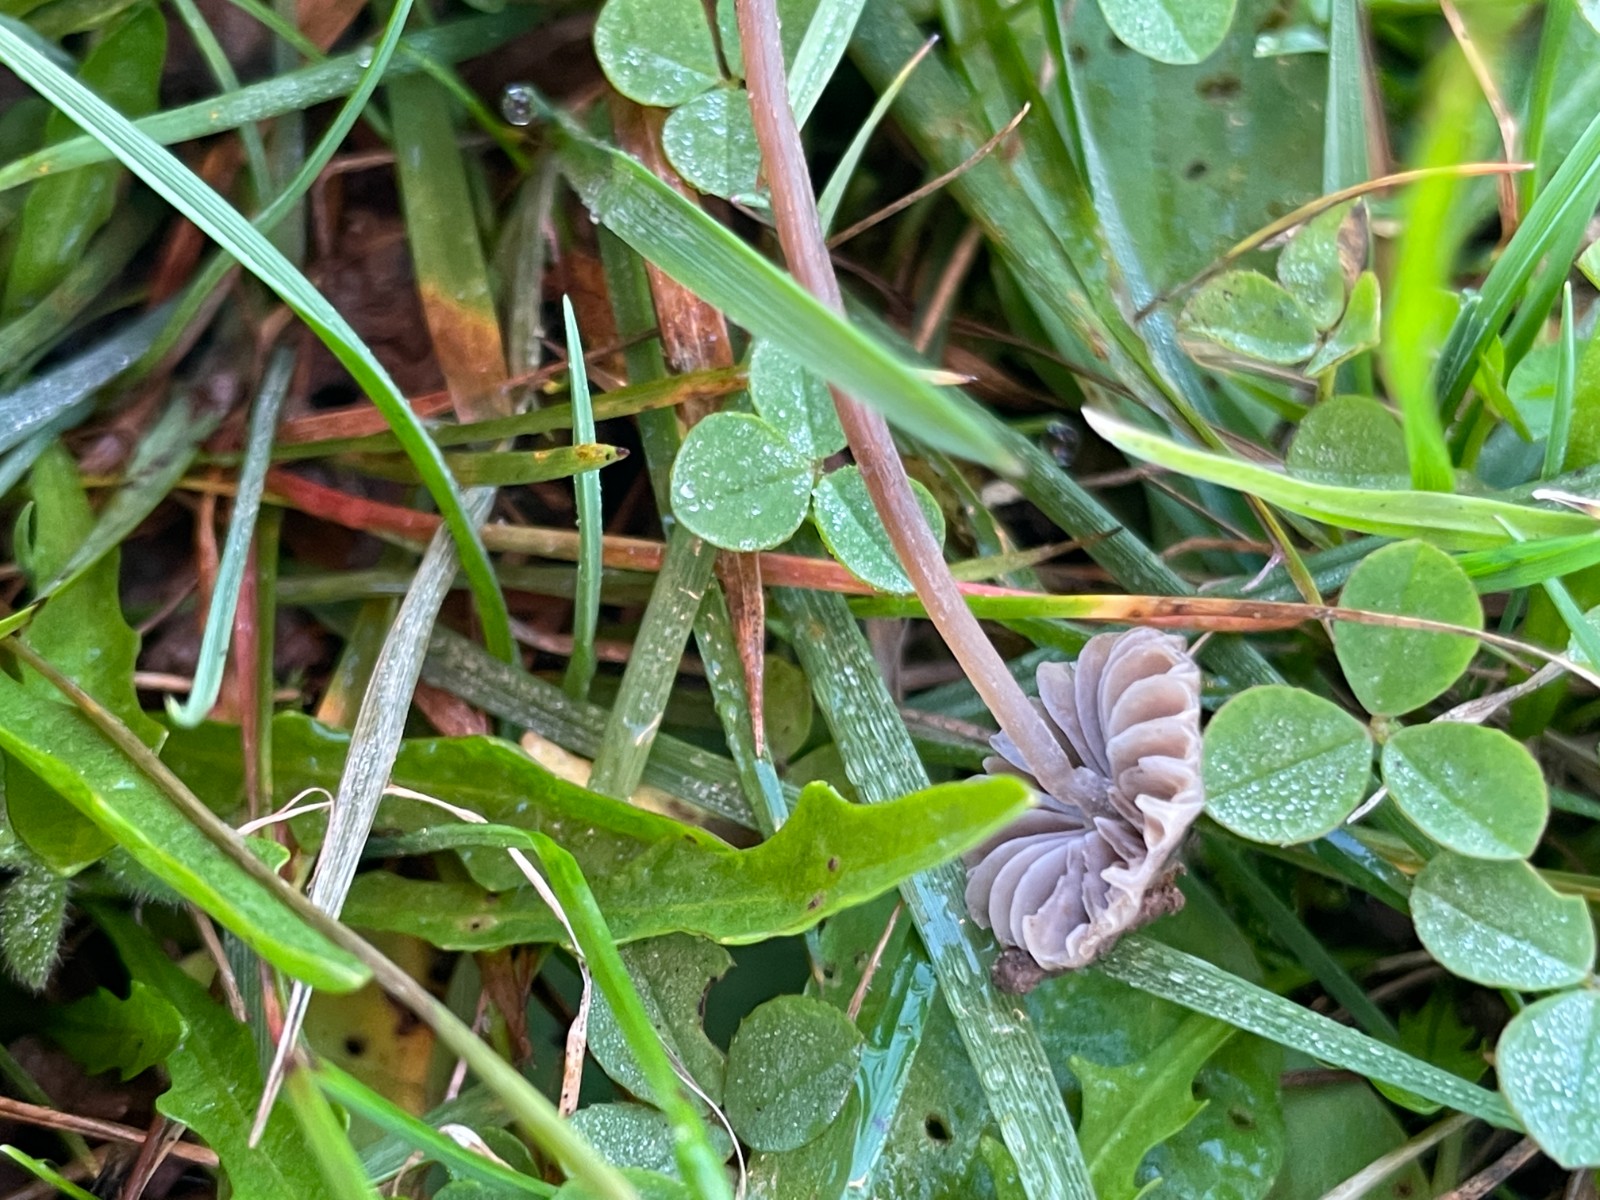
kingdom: Fungi
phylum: Basidiomycota
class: Agaricomycetes
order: Agaricales
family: Mycenaceae
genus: Mycena
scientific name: Mycena aetites
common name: plæne-huesvamp
